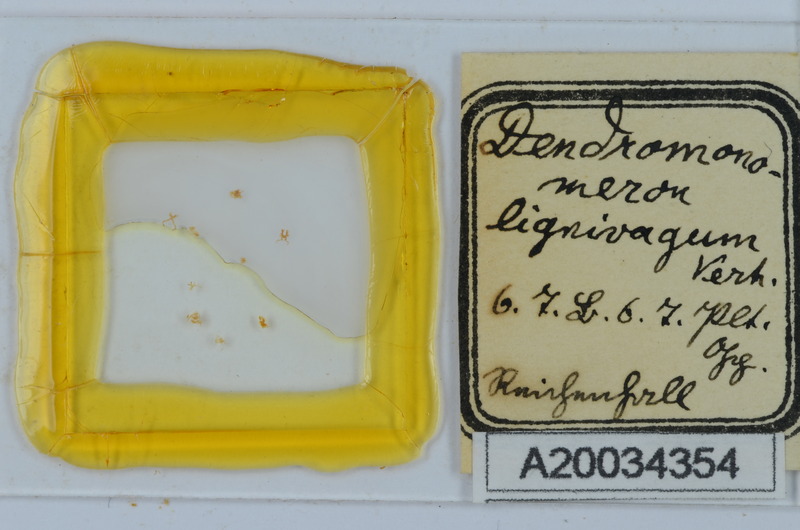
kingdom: Animalia
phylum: Arthropoda
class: Diplopoda
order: Chordeumatida
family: Attemsiidae
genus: Dendromonomeron
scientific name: Dendromonomeron lignivagum
